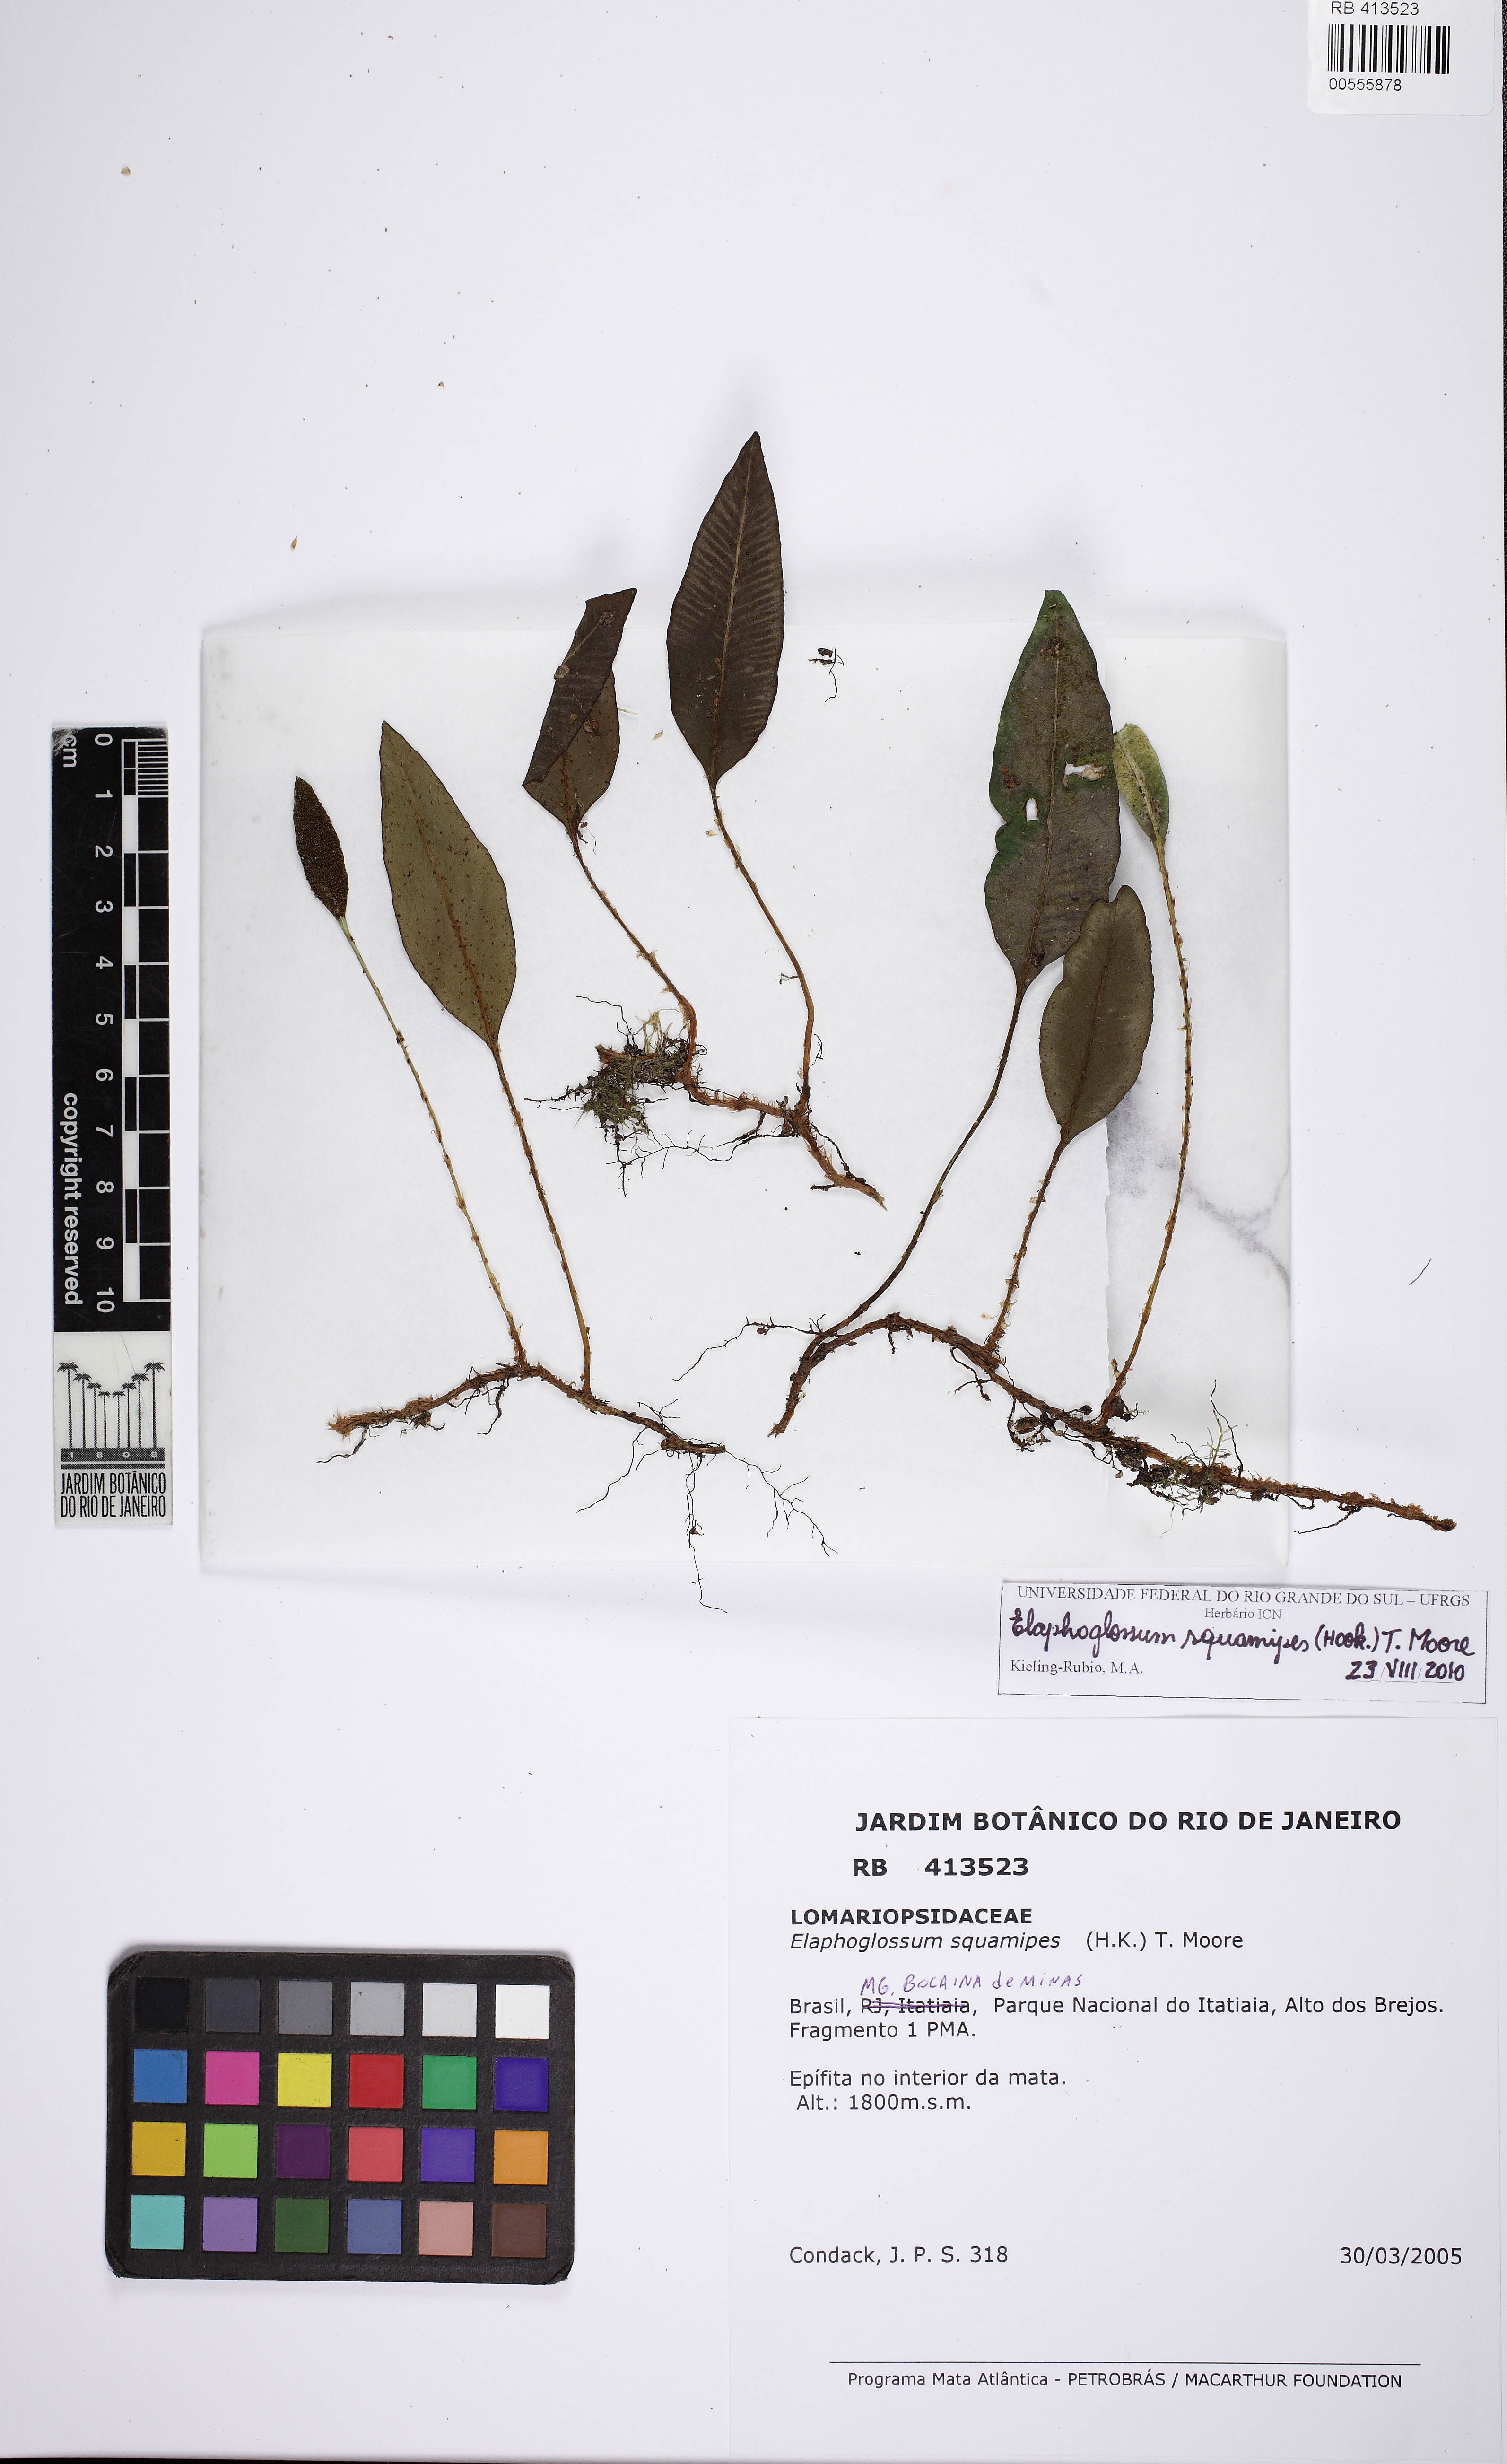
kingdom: Plantae
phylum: Tracheophyta
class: Polypodiopsida
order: Polypodiales
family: Dryopteridaceae
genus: Elaphoglossum
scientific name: Elaphoglossum squamipes
